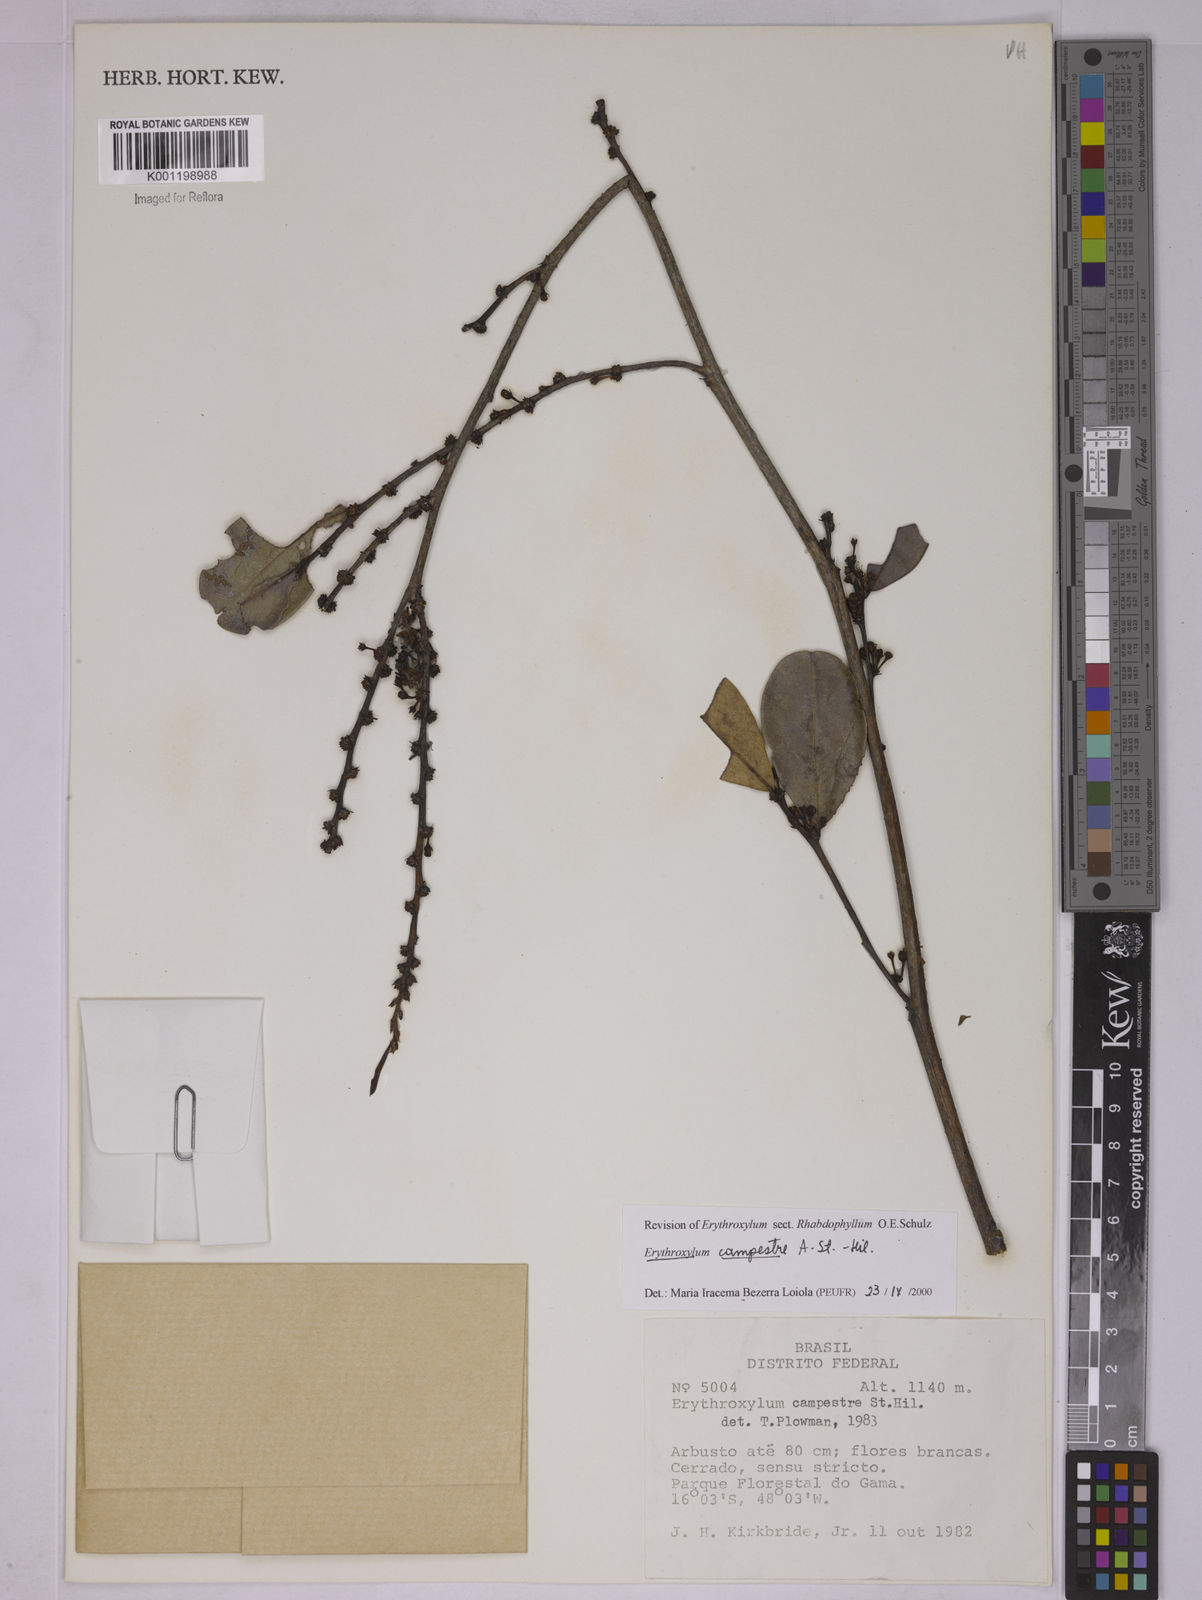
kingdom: Plantae
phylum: Tracheophyta
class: Magnoliopsida
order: Malpighiales
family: Erythroxylaceae
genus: Erythroxylum
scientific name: Erythroxylum campestre
